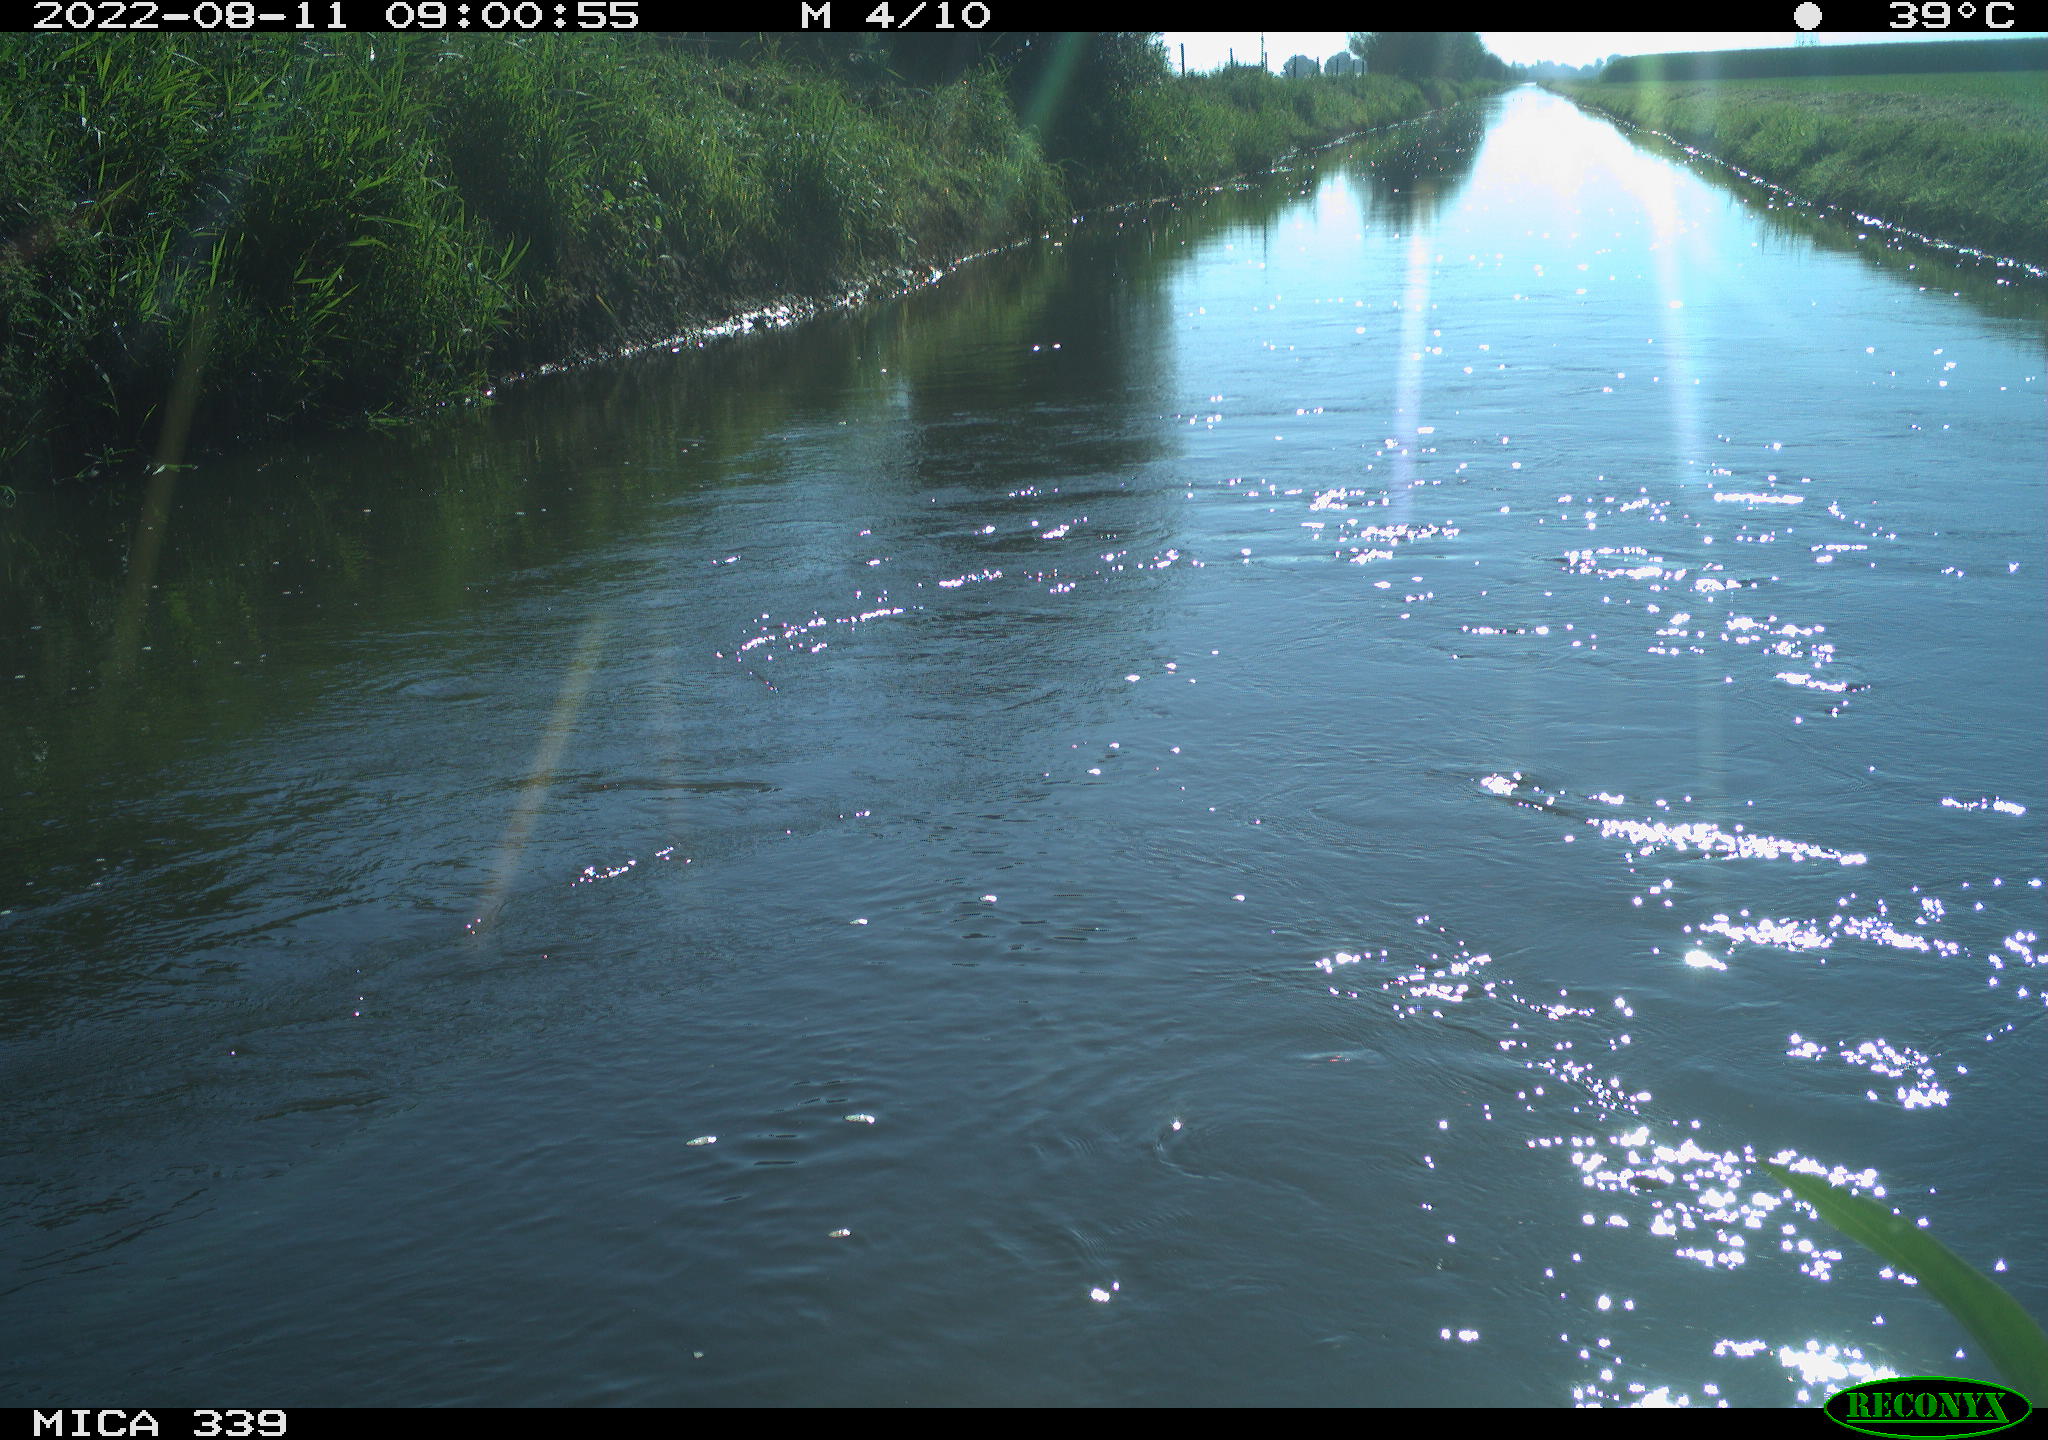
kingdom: Animalia
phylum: Chordata
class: Aves
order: Pelecaniformes
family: Ardeidae
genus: Ardea
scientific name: Ardea
